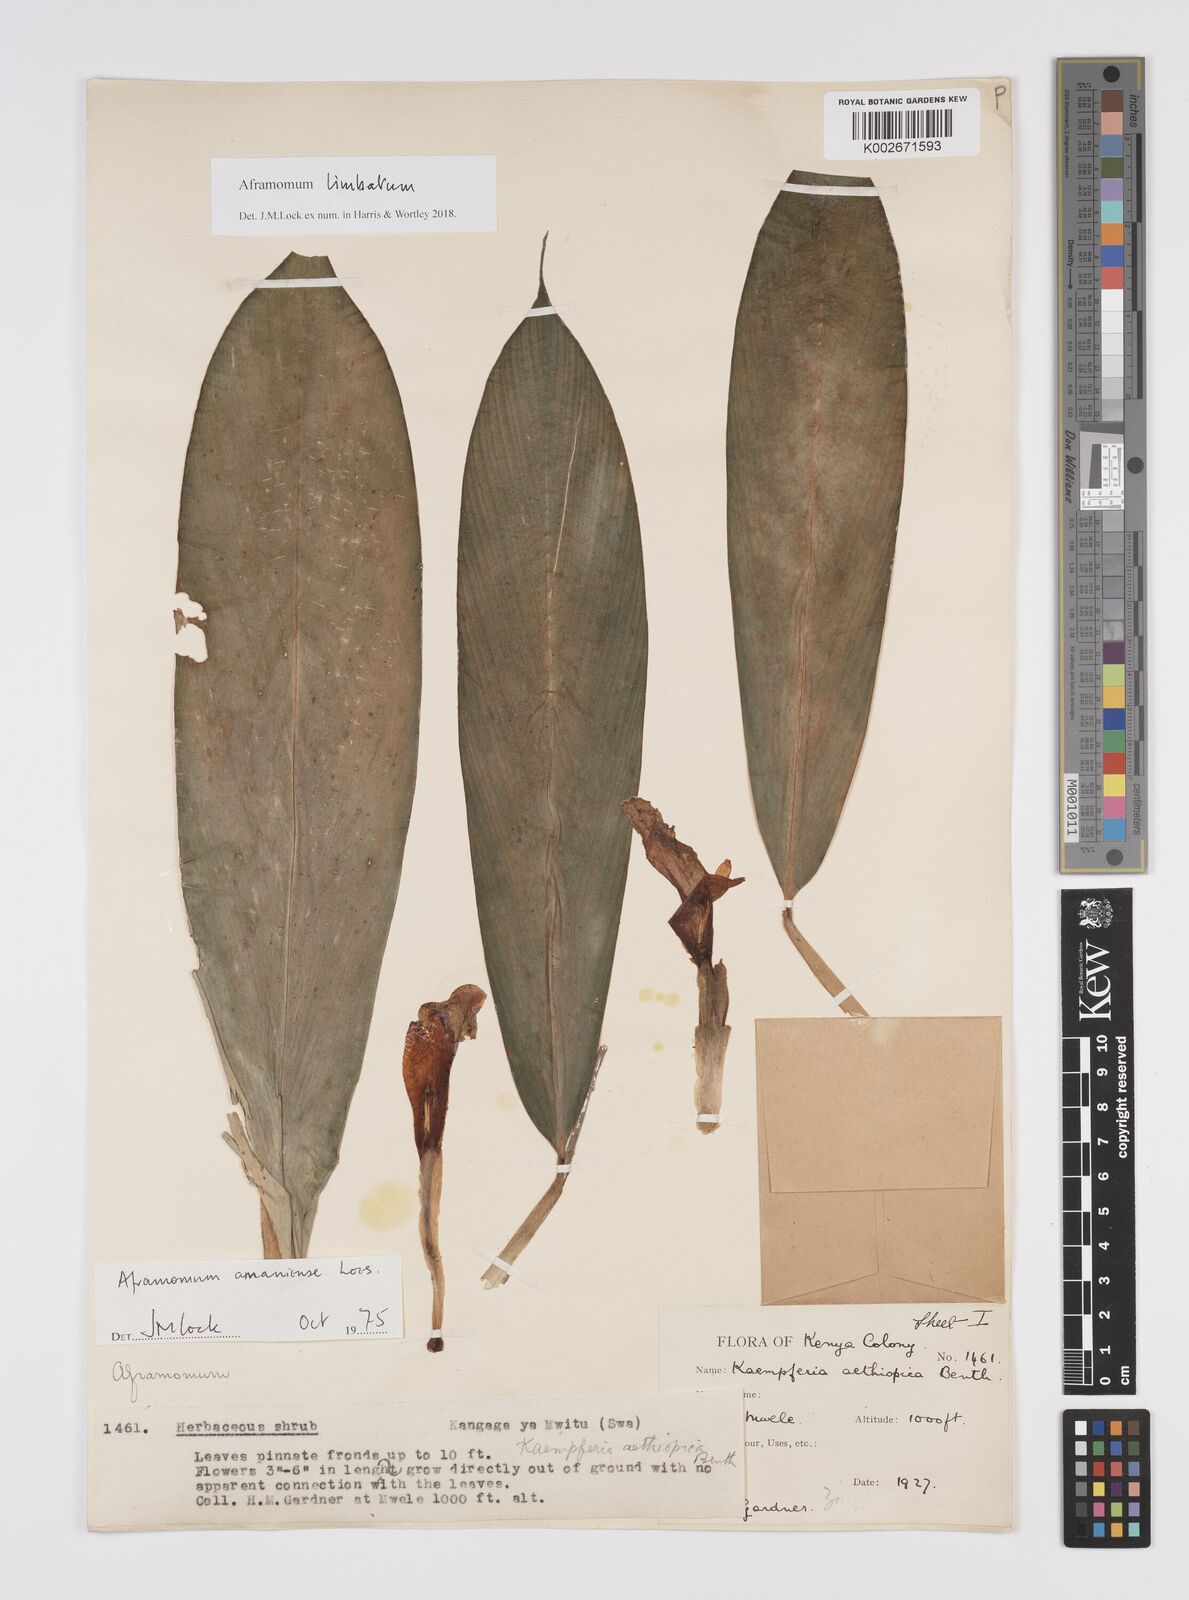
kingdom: Plantae
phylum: Tracheophyta
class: Liliopsida
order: Zingiberales
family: Zingiberaceae
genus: Aframomum
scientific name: Aframomum limbatum
